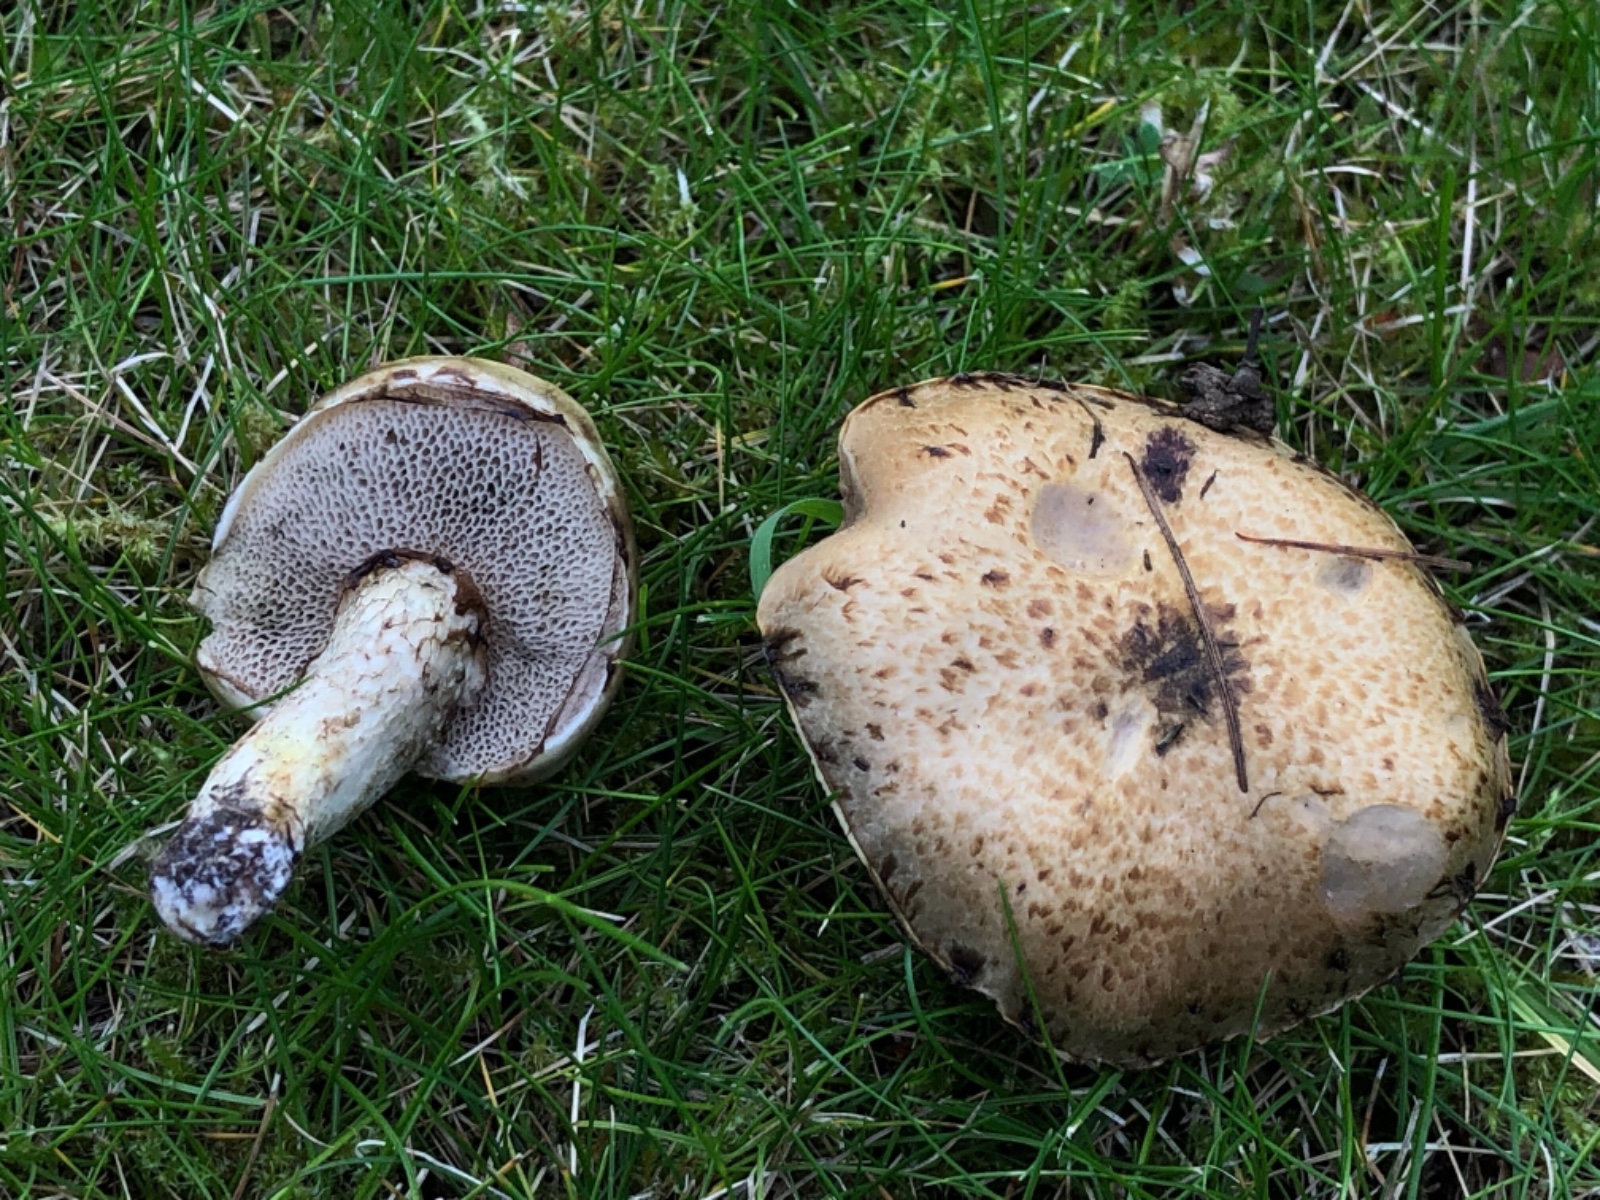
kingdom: Fungi
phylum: Basidiomycota
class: Agaricomycetes
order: Boletales
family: Suillaceae
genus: Suillus
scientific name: Suillus viscidus
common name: olivengrå slimrørhat
